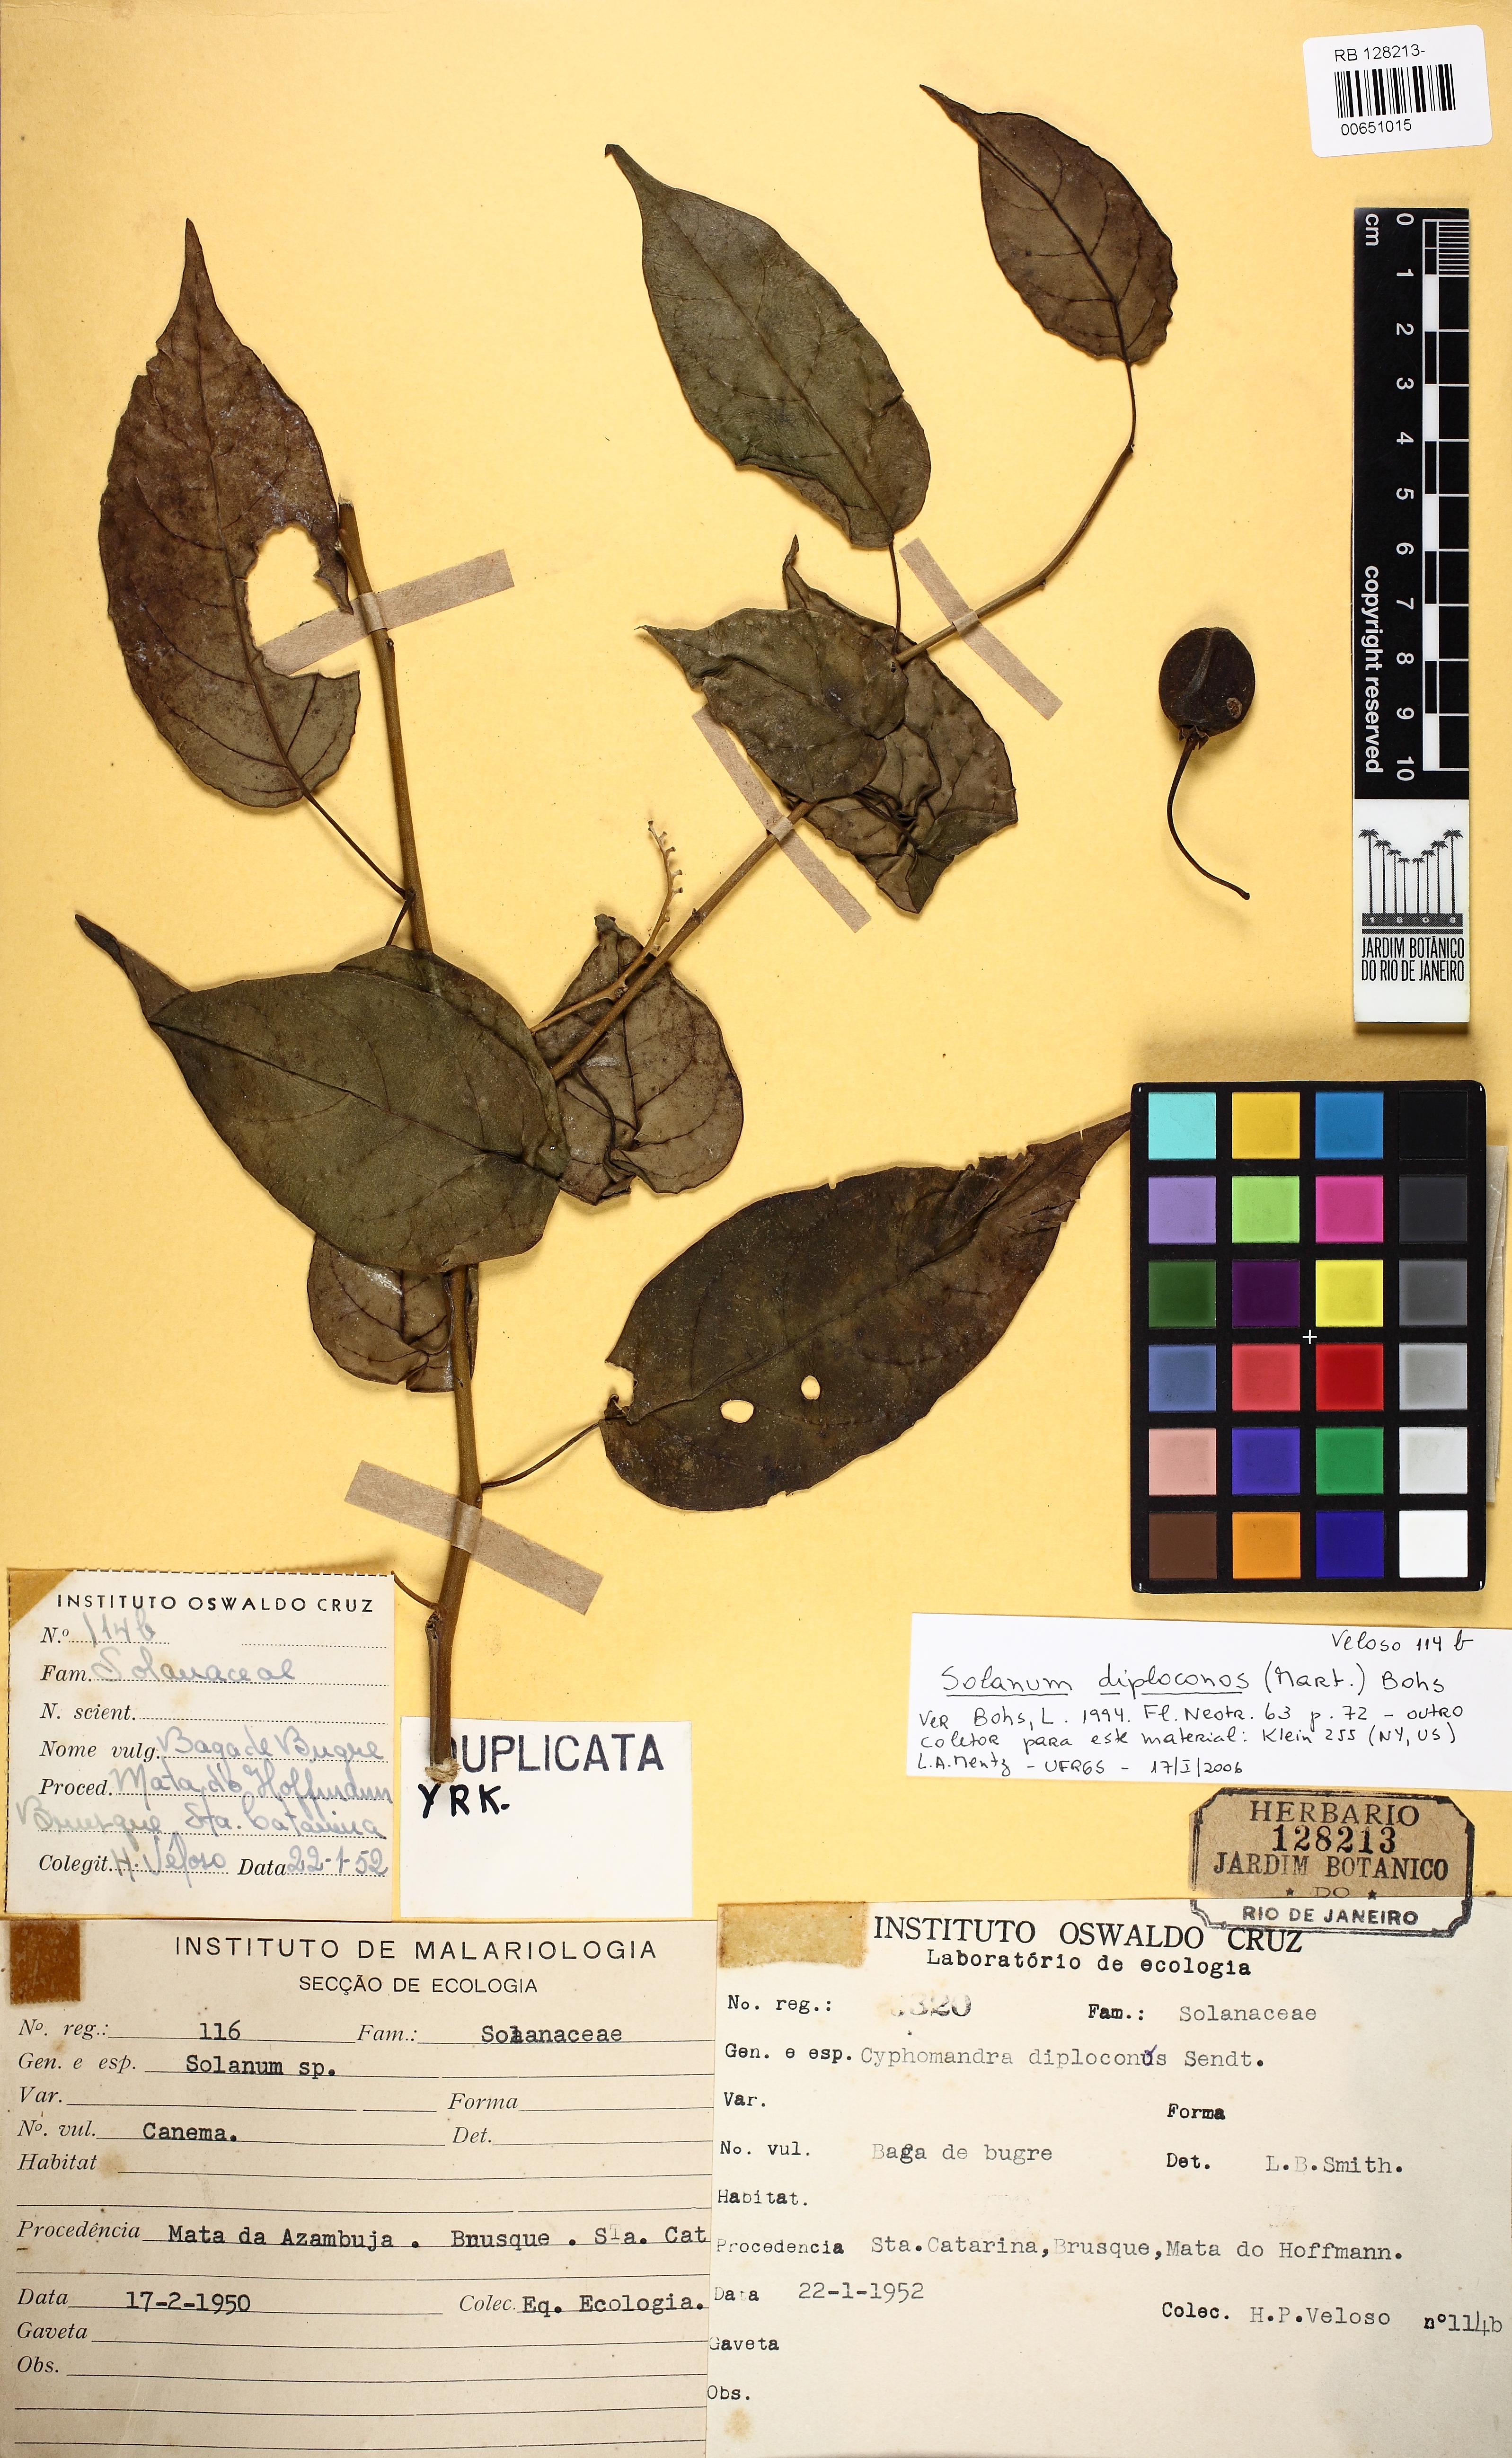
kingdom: Plantae
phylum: Tracheophyta
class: Magnoliopsida
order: Solanales
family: Solanaceae
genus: Solanum
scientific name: Solanum diploconos
